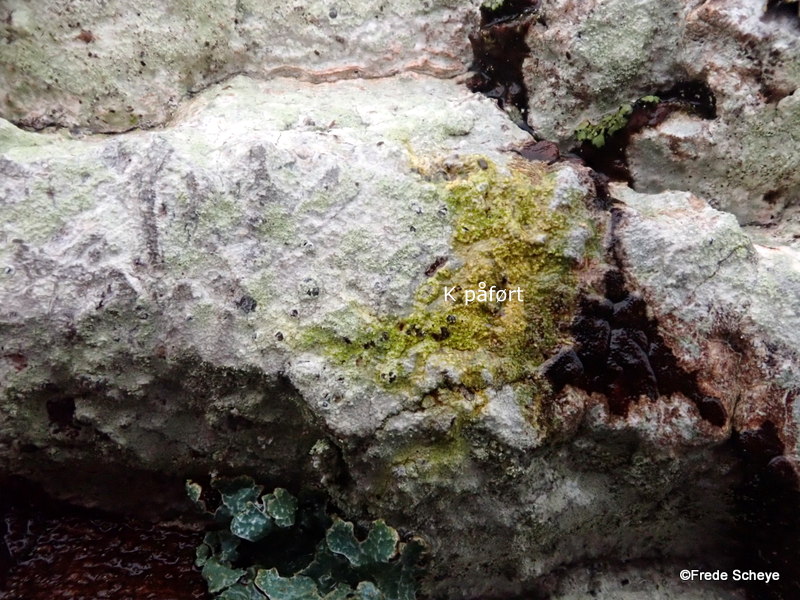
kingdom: Fungi
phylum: Ascomycota
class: Lecanoromycetes
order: Ostropales
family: Phlyctidaceae
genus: Phlyctis
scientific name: Phlyctis argena
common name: almindelig sølvlav
